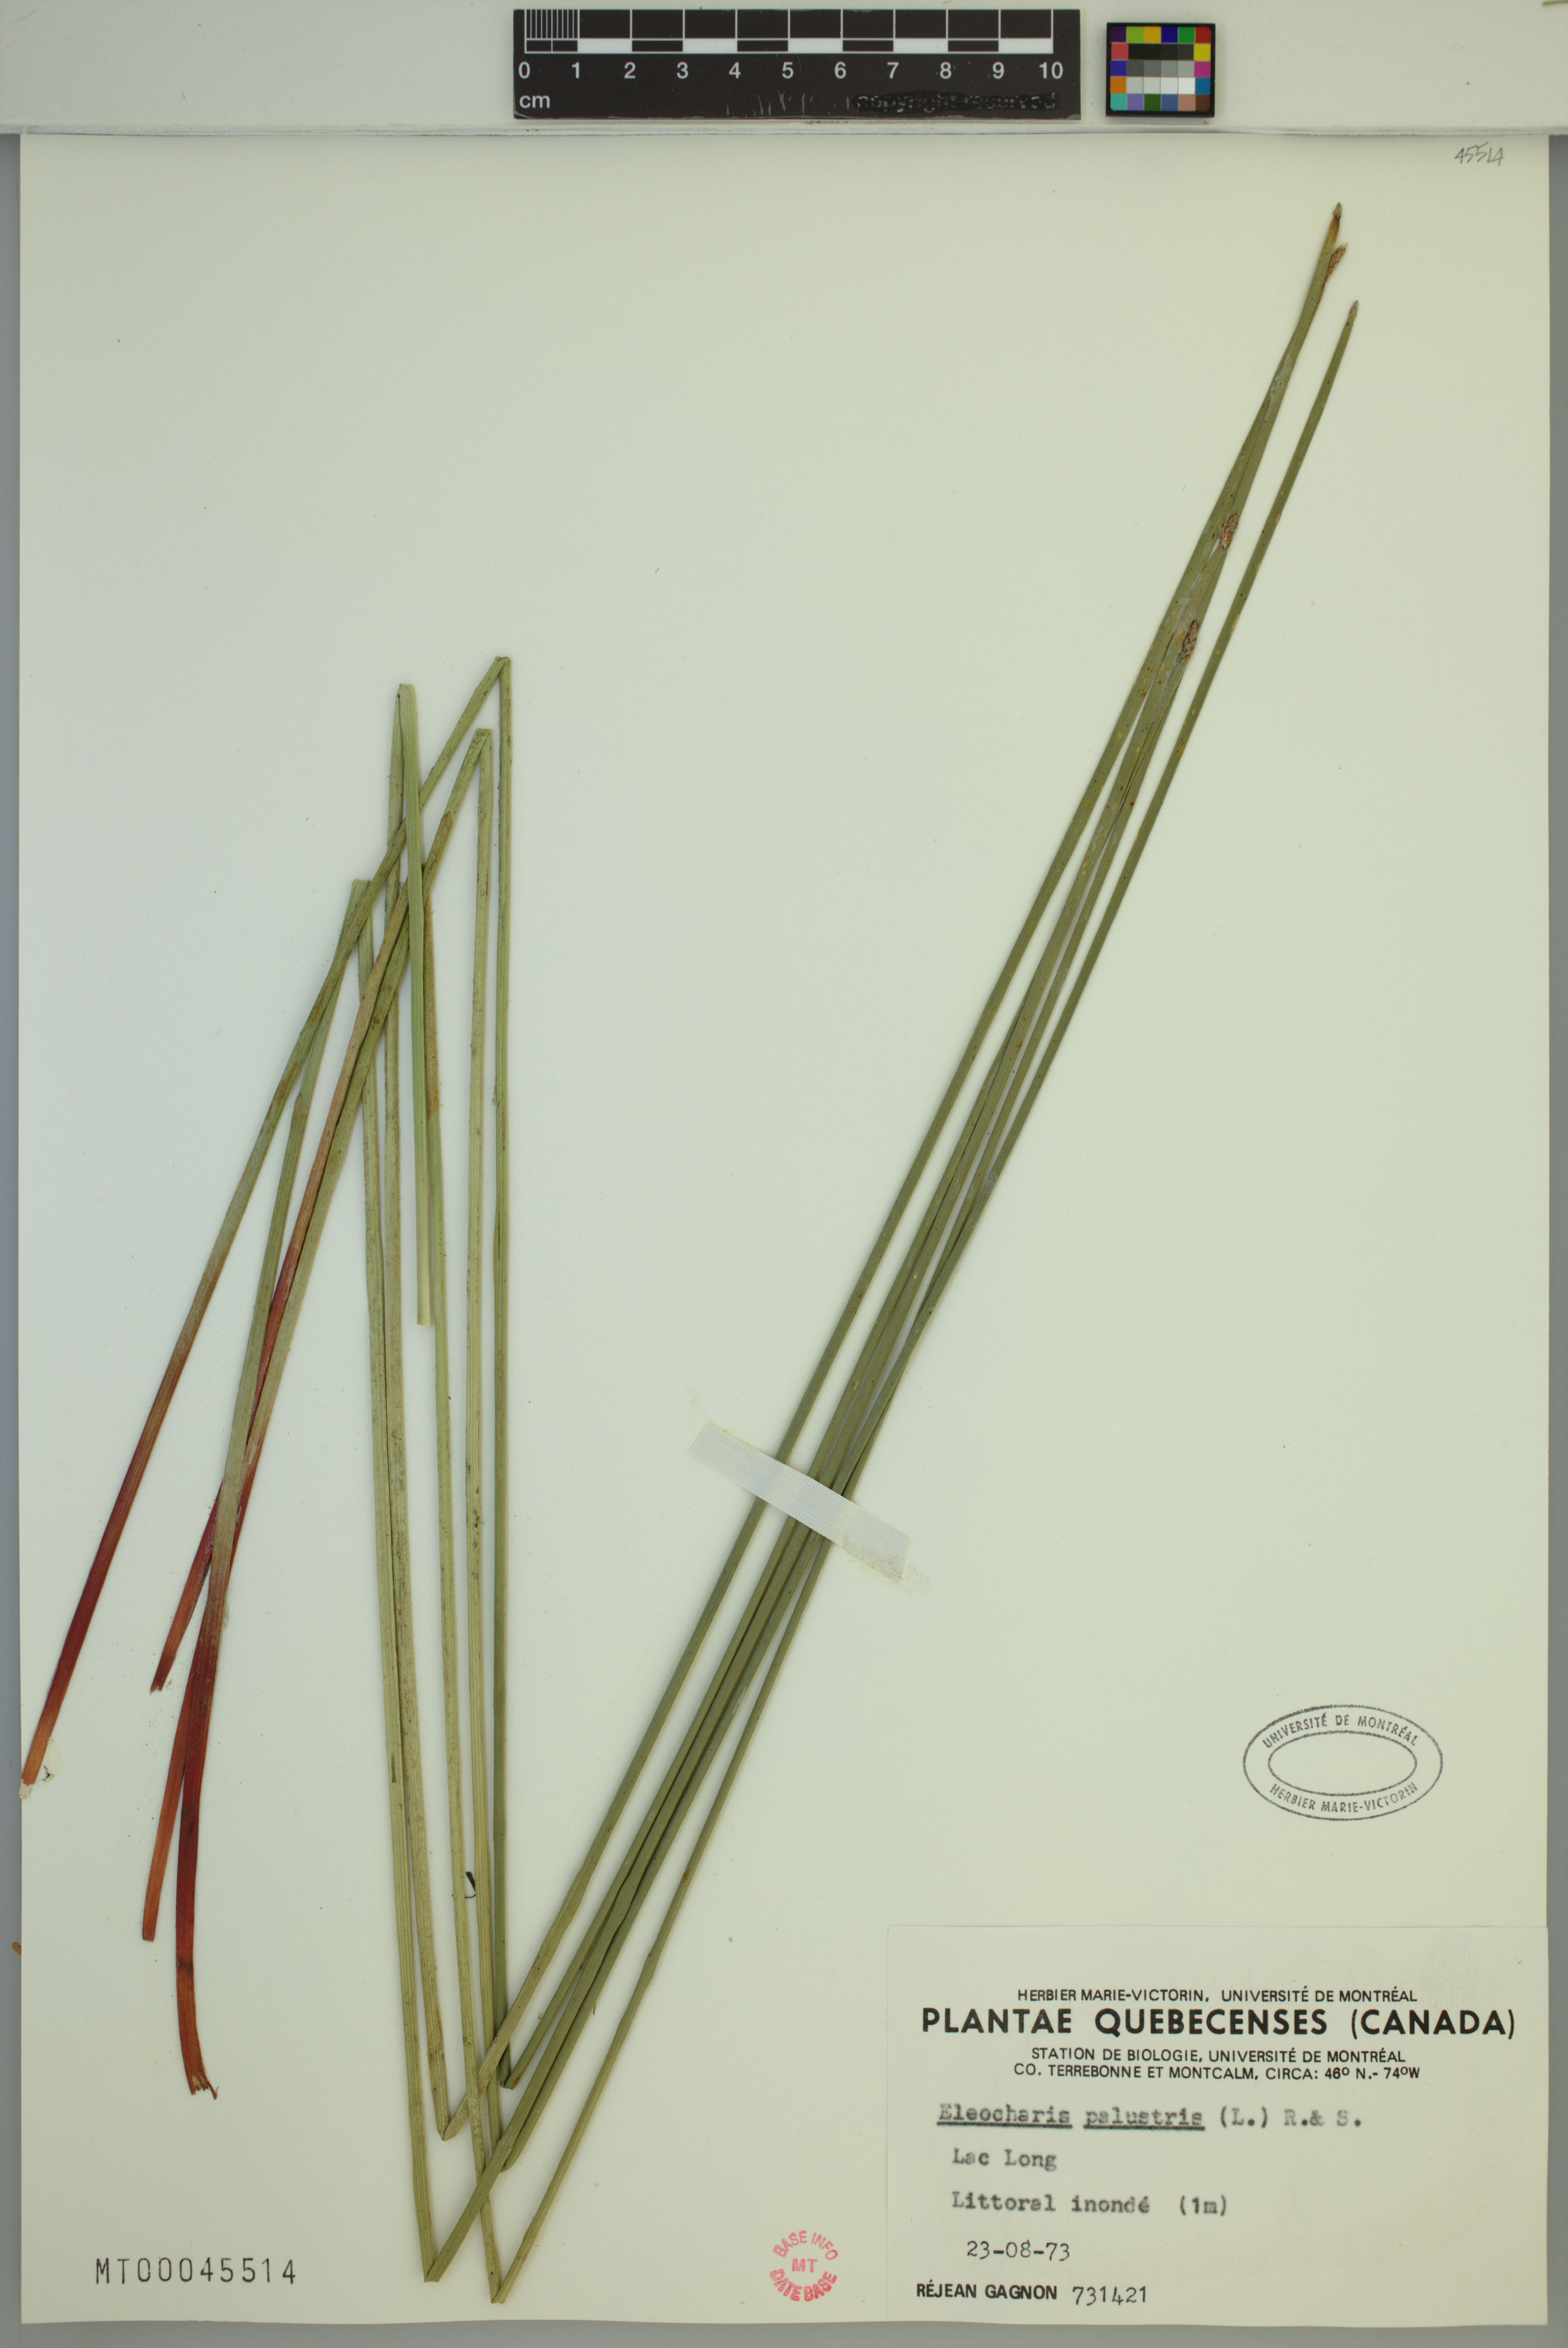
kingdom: Plantae
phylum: Tracheophyta
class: Liliopsida
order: Poales
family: Cyperaceae
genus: Eleocharis
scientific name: Eleocharis palustris
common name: Common spike-rush
